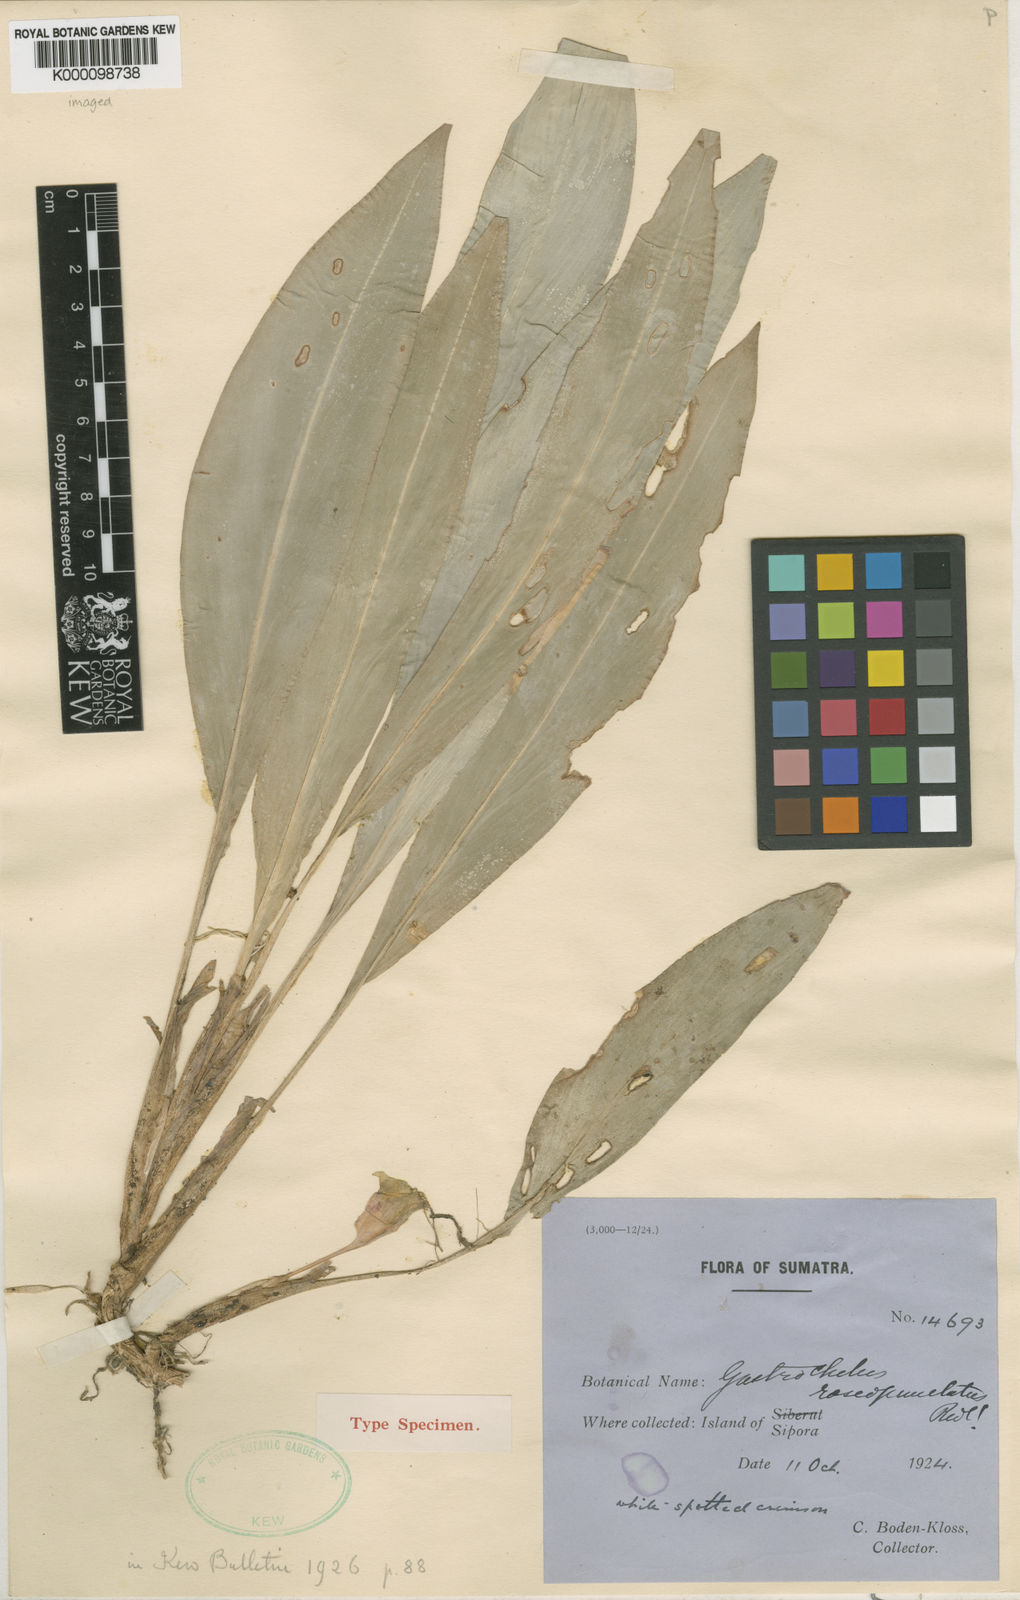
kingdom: Plantae
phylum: Tracheophyta
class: Liliopsida
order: Zingiberales
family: Zingiberaceae
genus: Boesenbergia
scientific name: Boesenbergia roseopunctata
